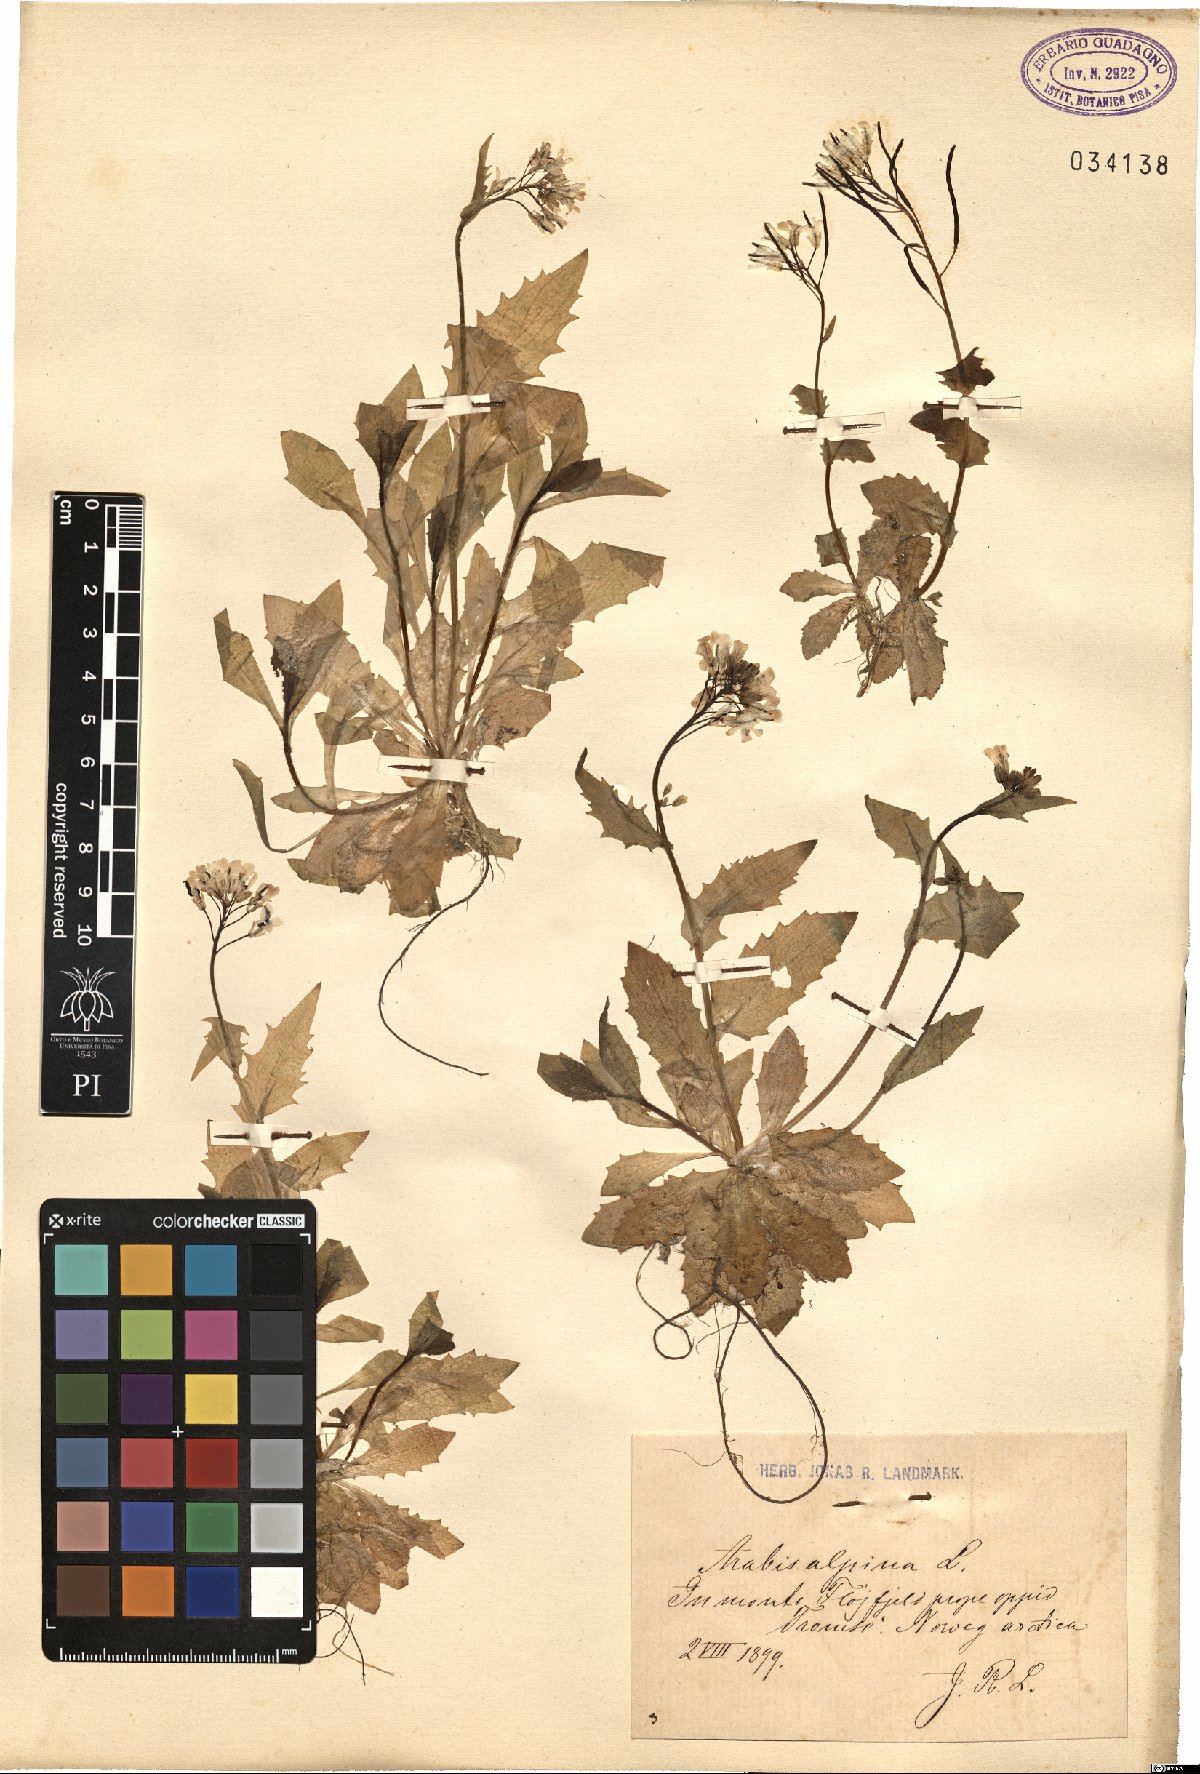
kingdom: Plantae
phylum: Tracheophyta
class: Magnoliopsida
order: Brassicales
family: Brassicaceae
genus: Arabis
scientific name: Arabis alpina
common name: Alpine rock-cress
